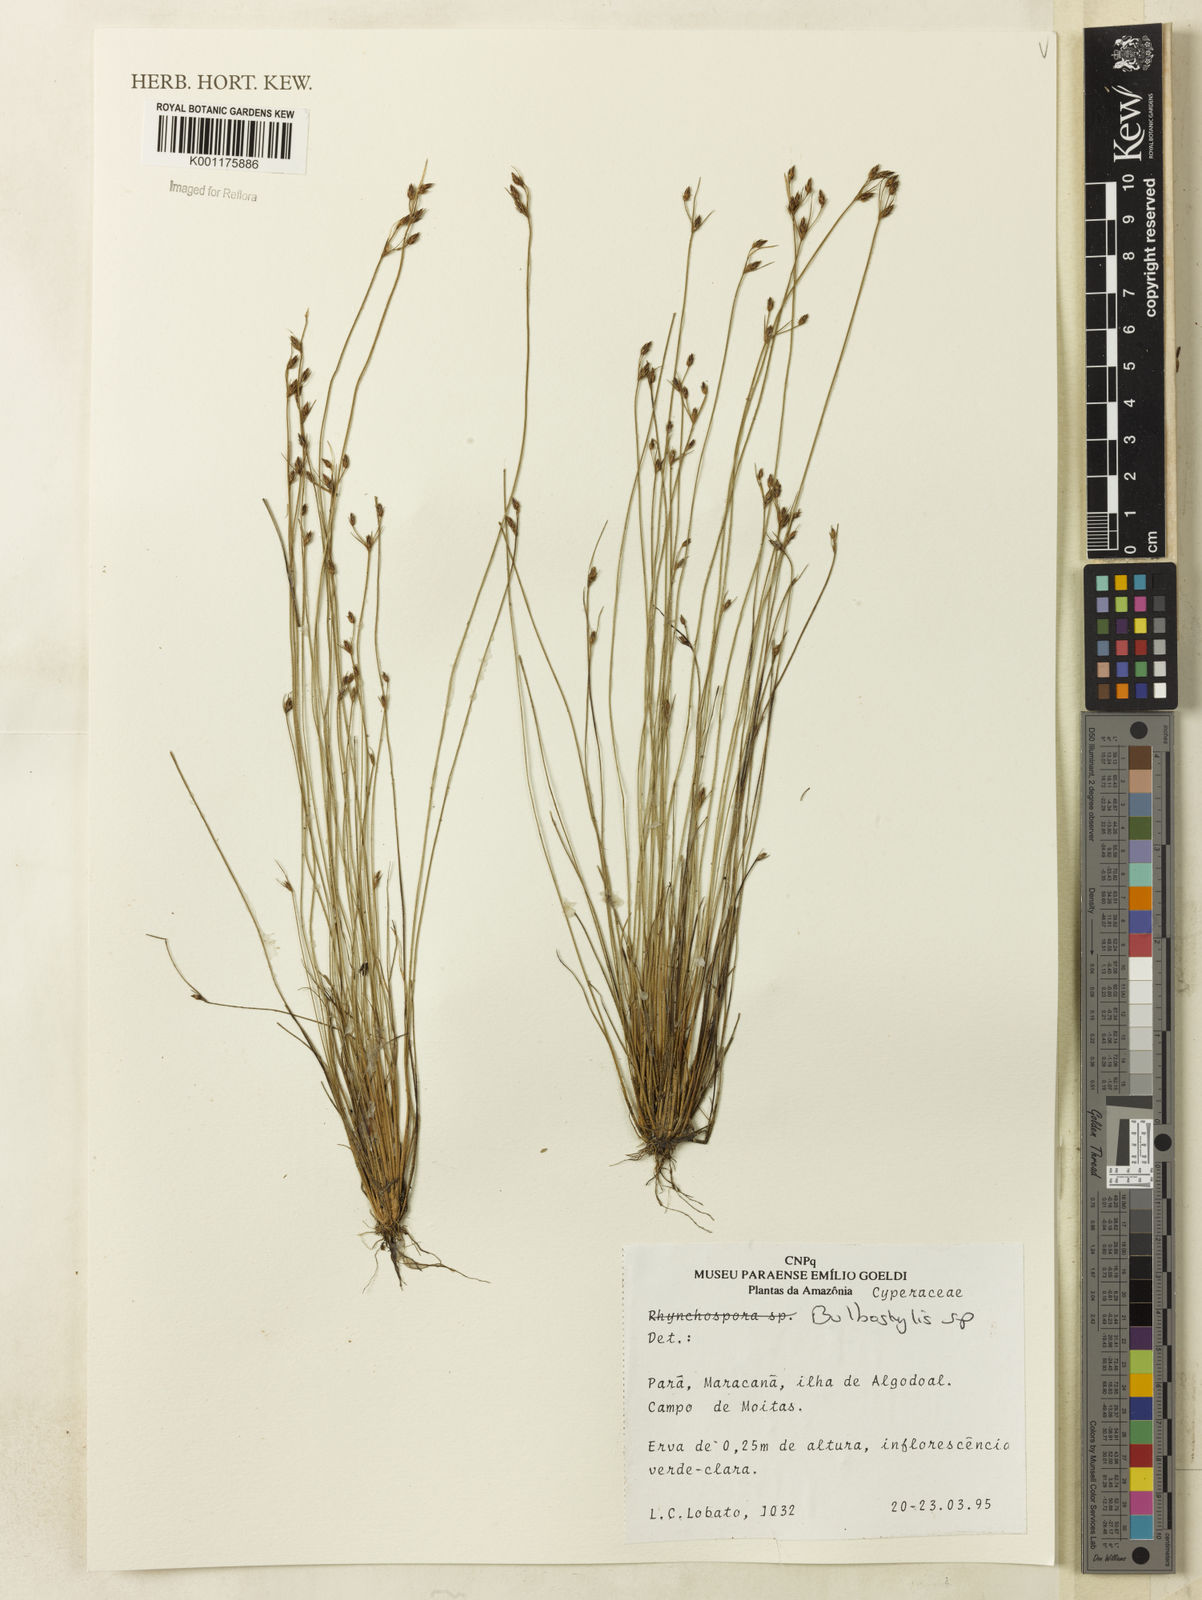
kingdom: Plantae
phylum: Tracheophyta
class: Liliopsida
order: Poales
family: Cyperaceae
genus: Bulbostylis
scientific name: Bulbostylis
